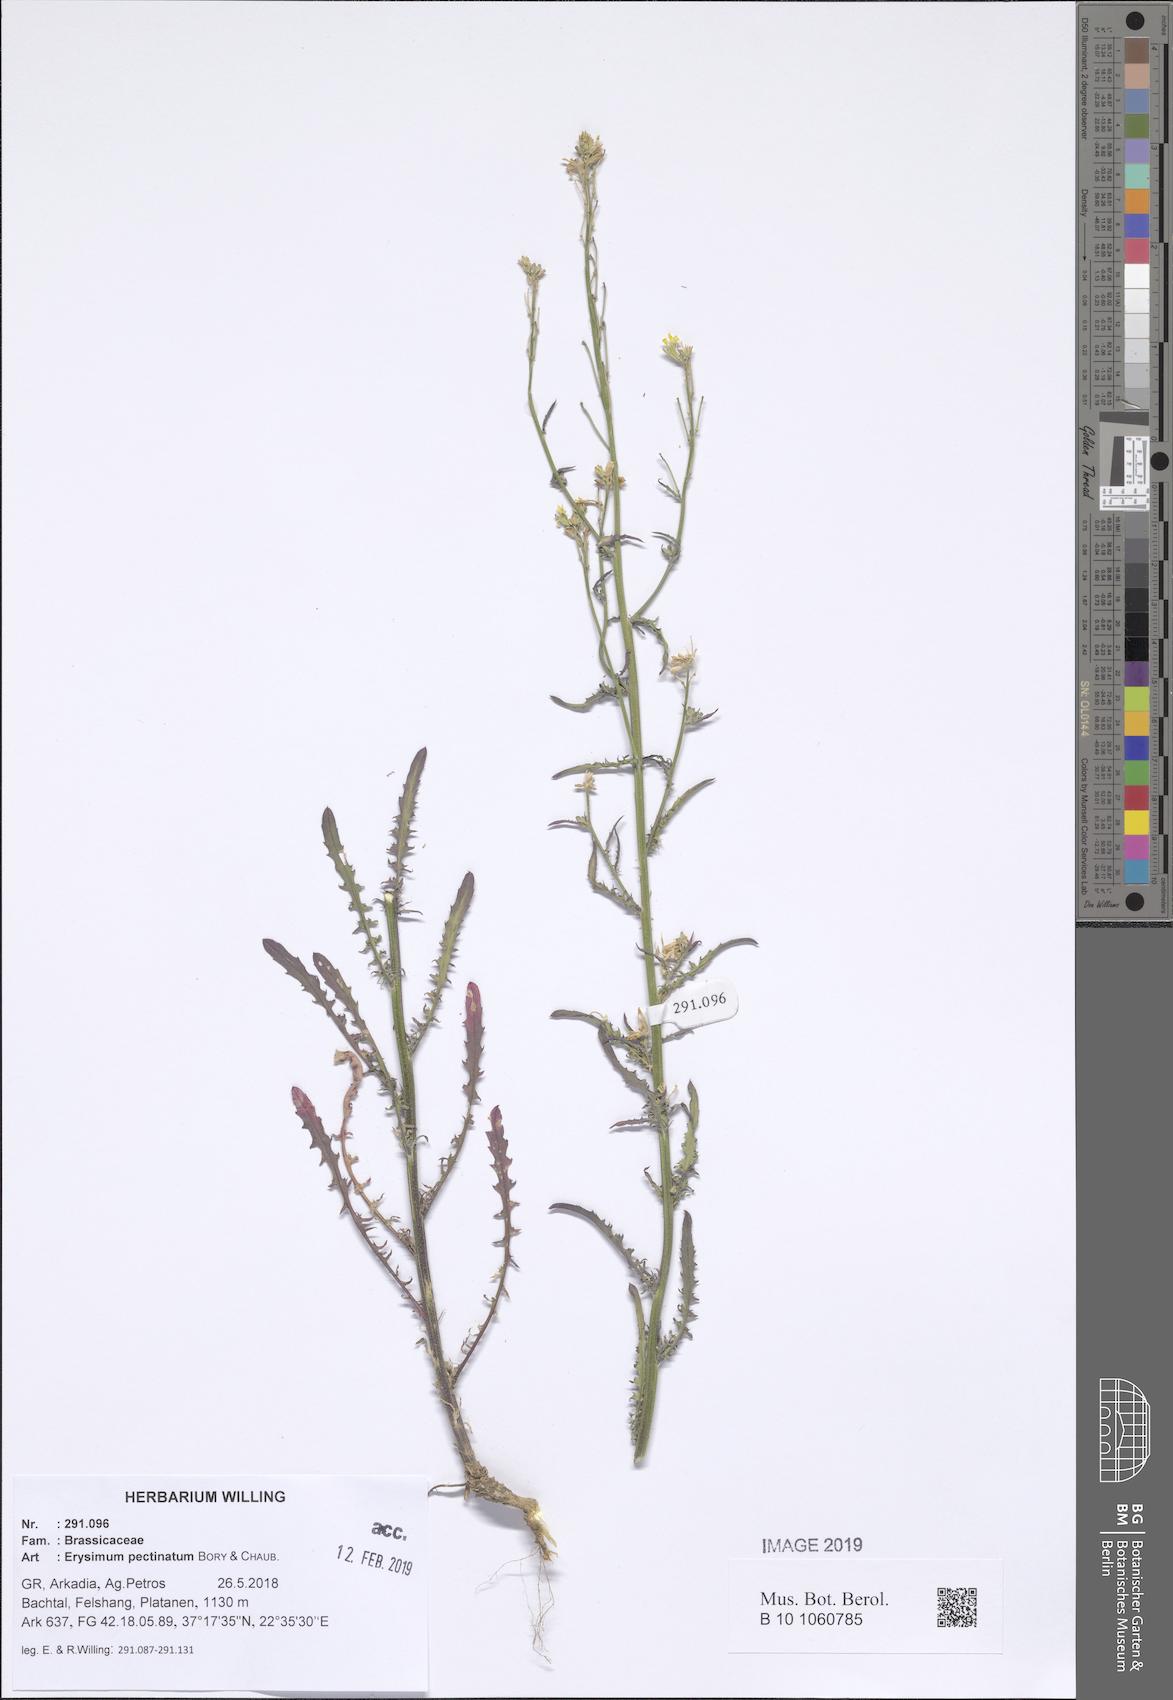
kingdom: Plantae
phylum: Tracheophyta
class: Magnoliopsida
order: Brassicales
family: Brassicaceae
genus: Erysimum
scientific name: Erysimum pectinatum
